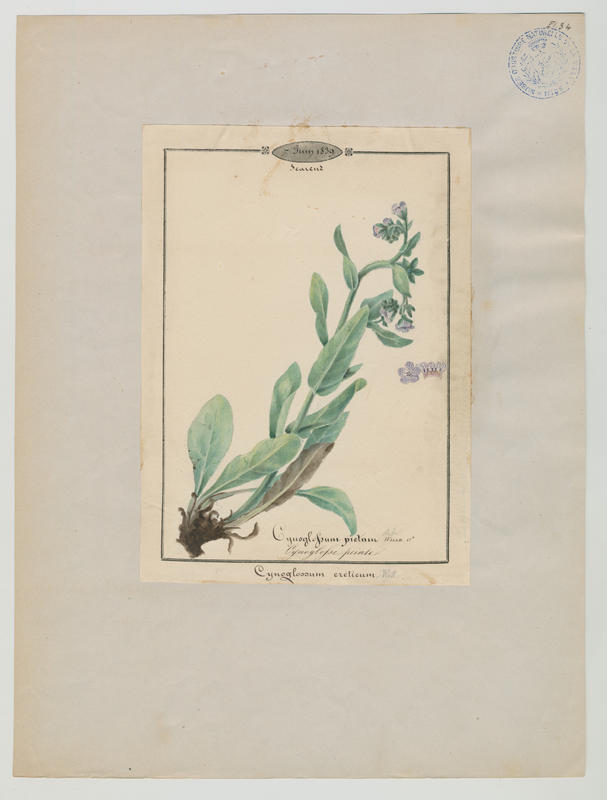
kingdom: Plantae
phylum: Tracheophyta
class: Magnoliopsida
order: Boraginales
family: Boraginaceae
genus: Cynoglossum
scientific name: Cynoglossum creticum
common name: Blue hound's tongue
